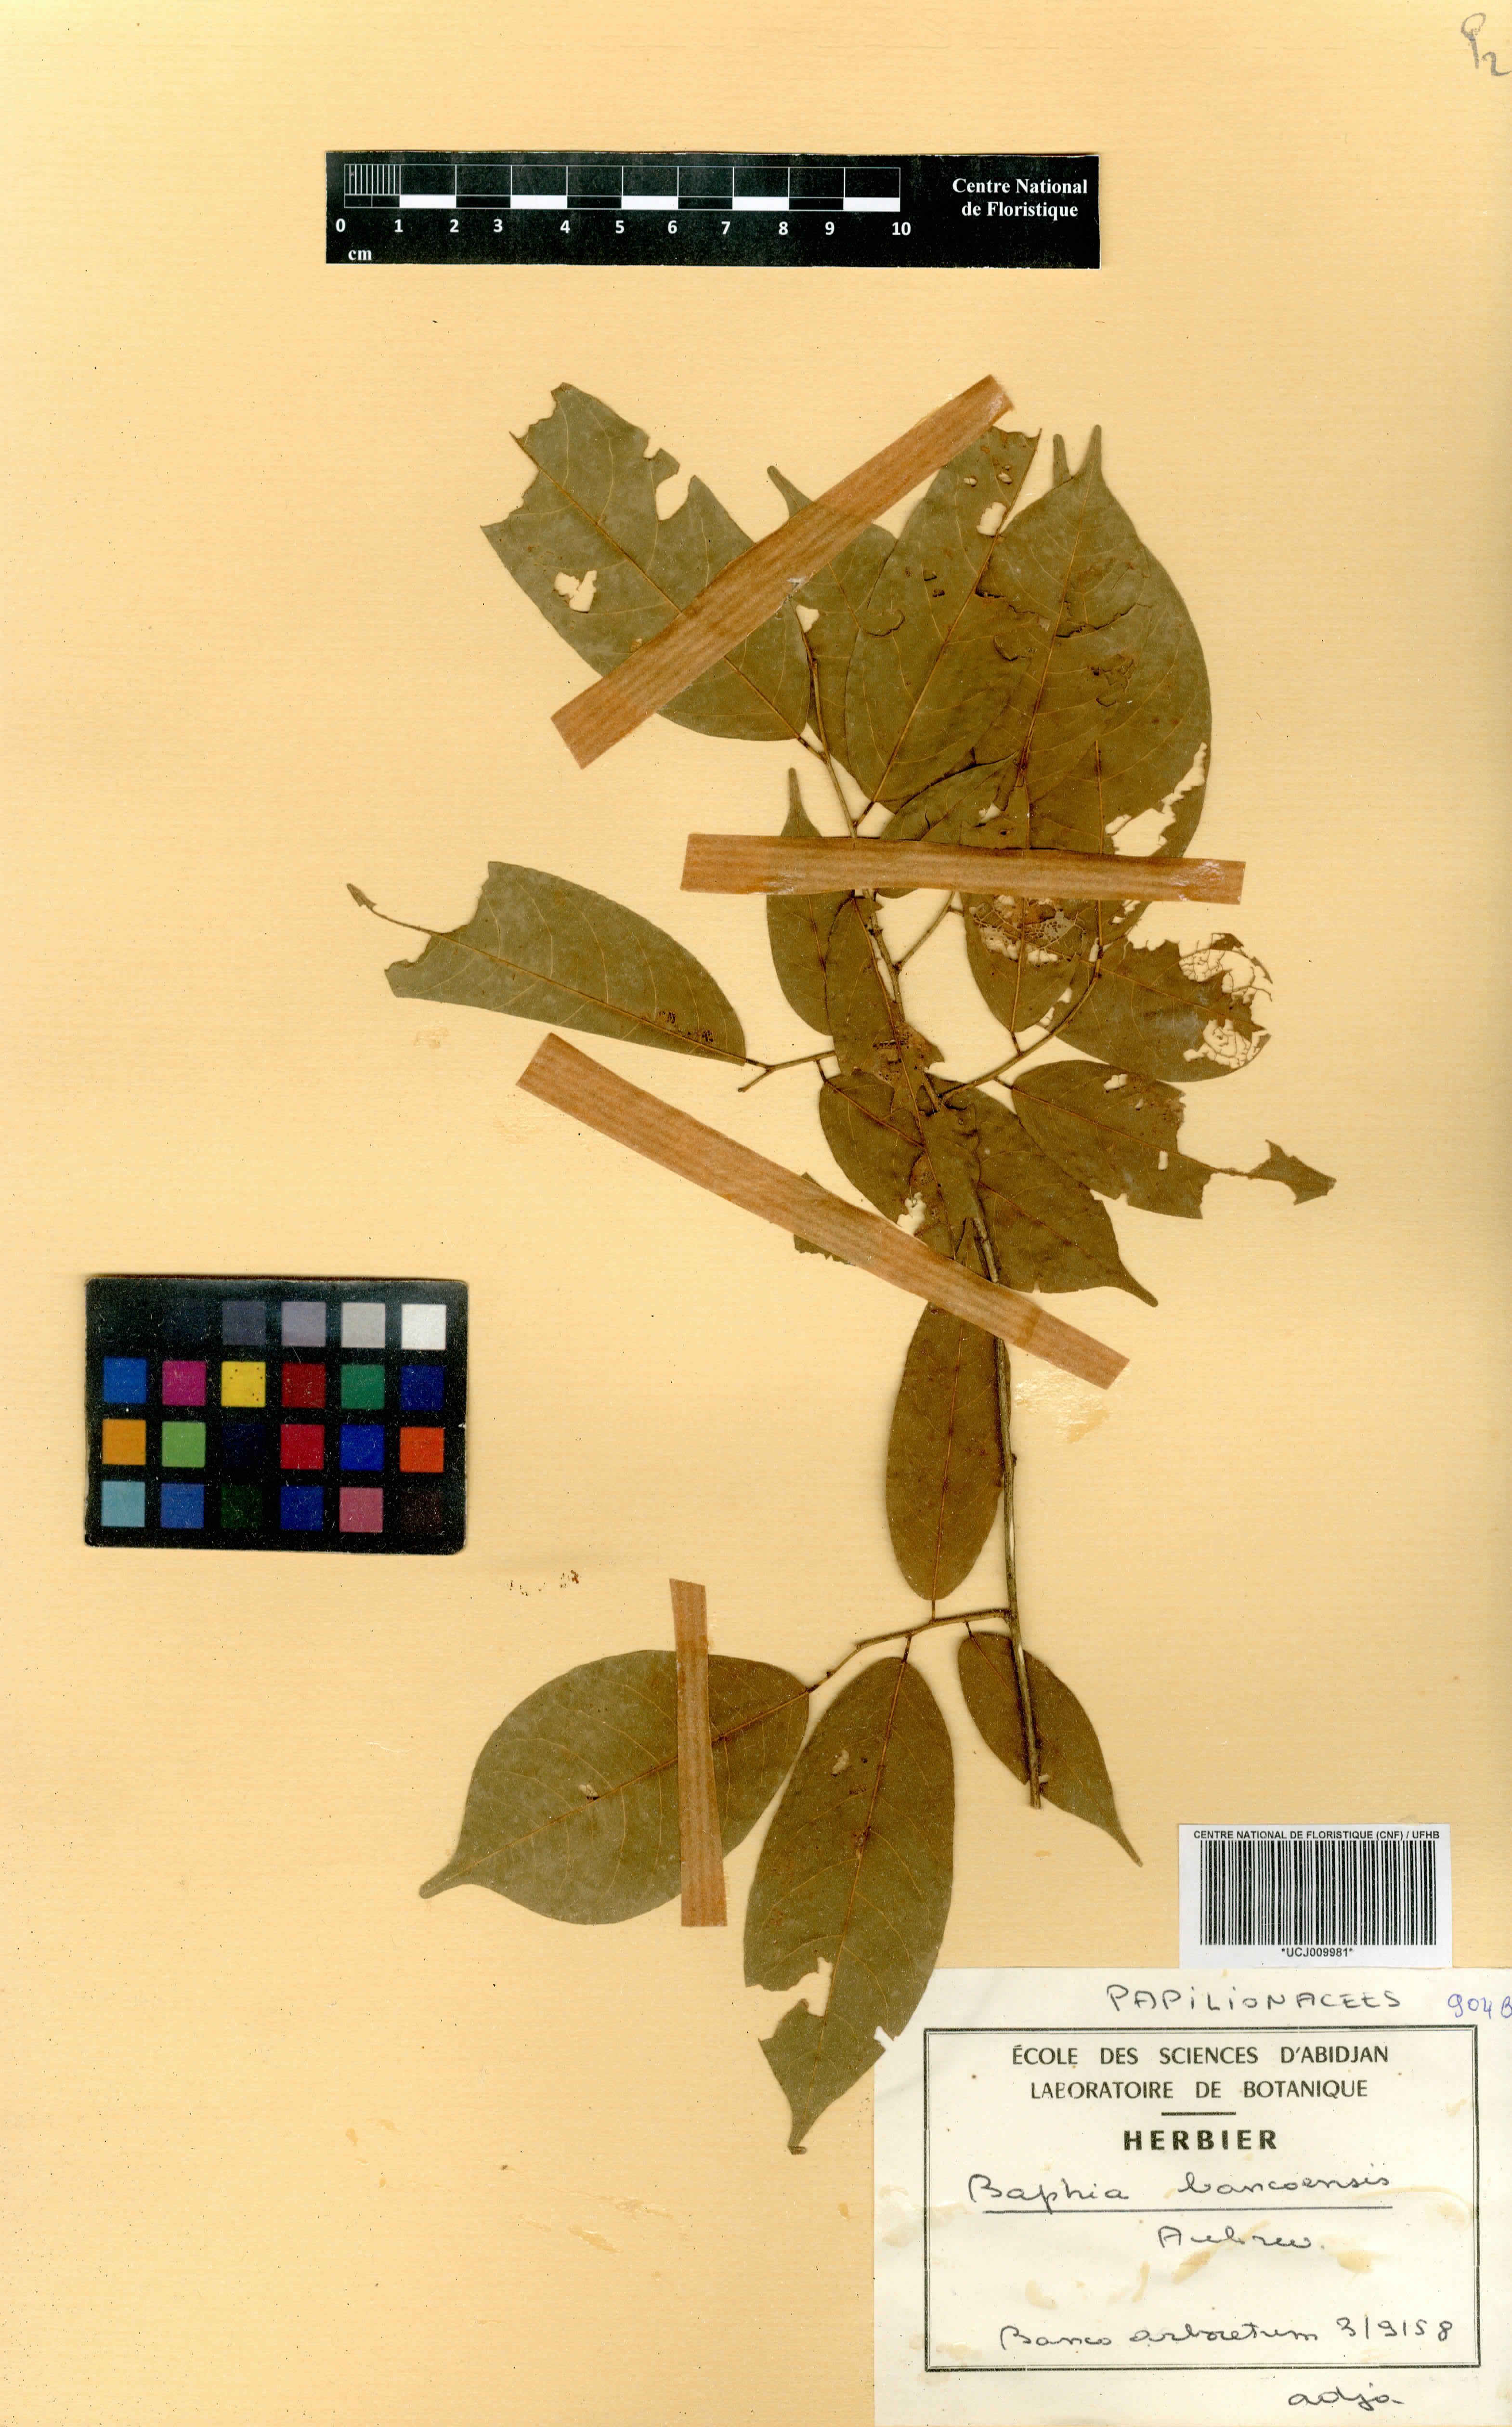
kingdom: Plantae
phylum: Tracheophyta
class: Magnoliopsida
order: Fabales
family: Fabaceae
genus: Baphia
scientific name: Baphia pubescens
